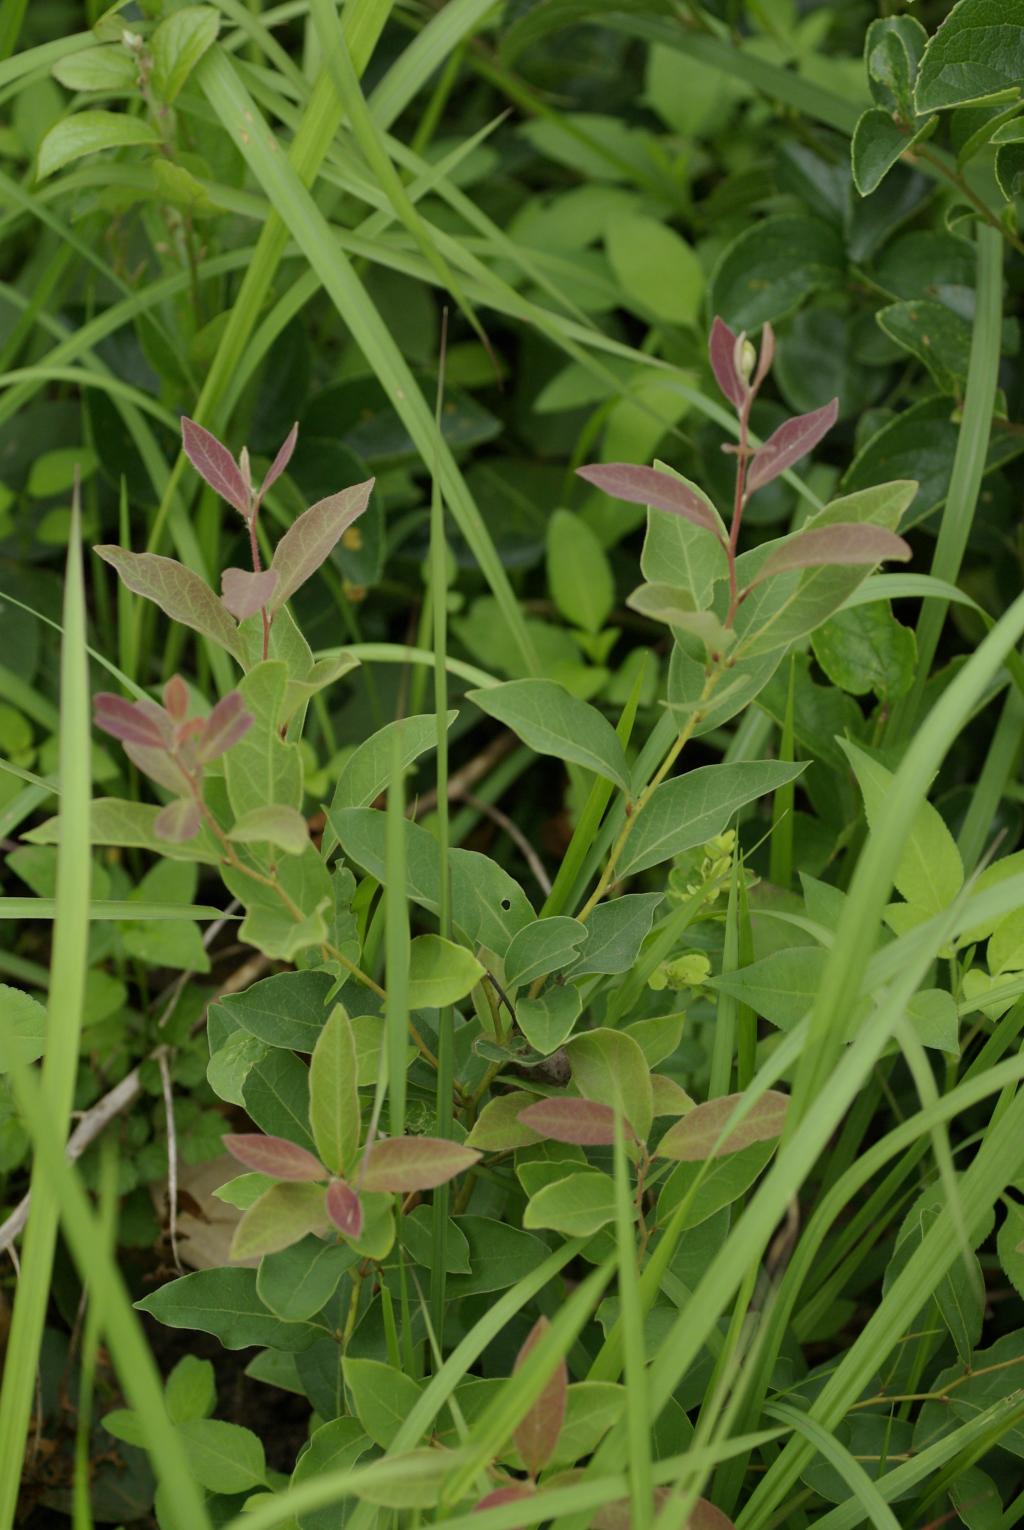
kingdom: Plantae
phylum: Tracheophyta
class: Magnoliopsida
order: Laurales
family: Lauraceae
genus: Lindera
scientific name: Lindera glauca
